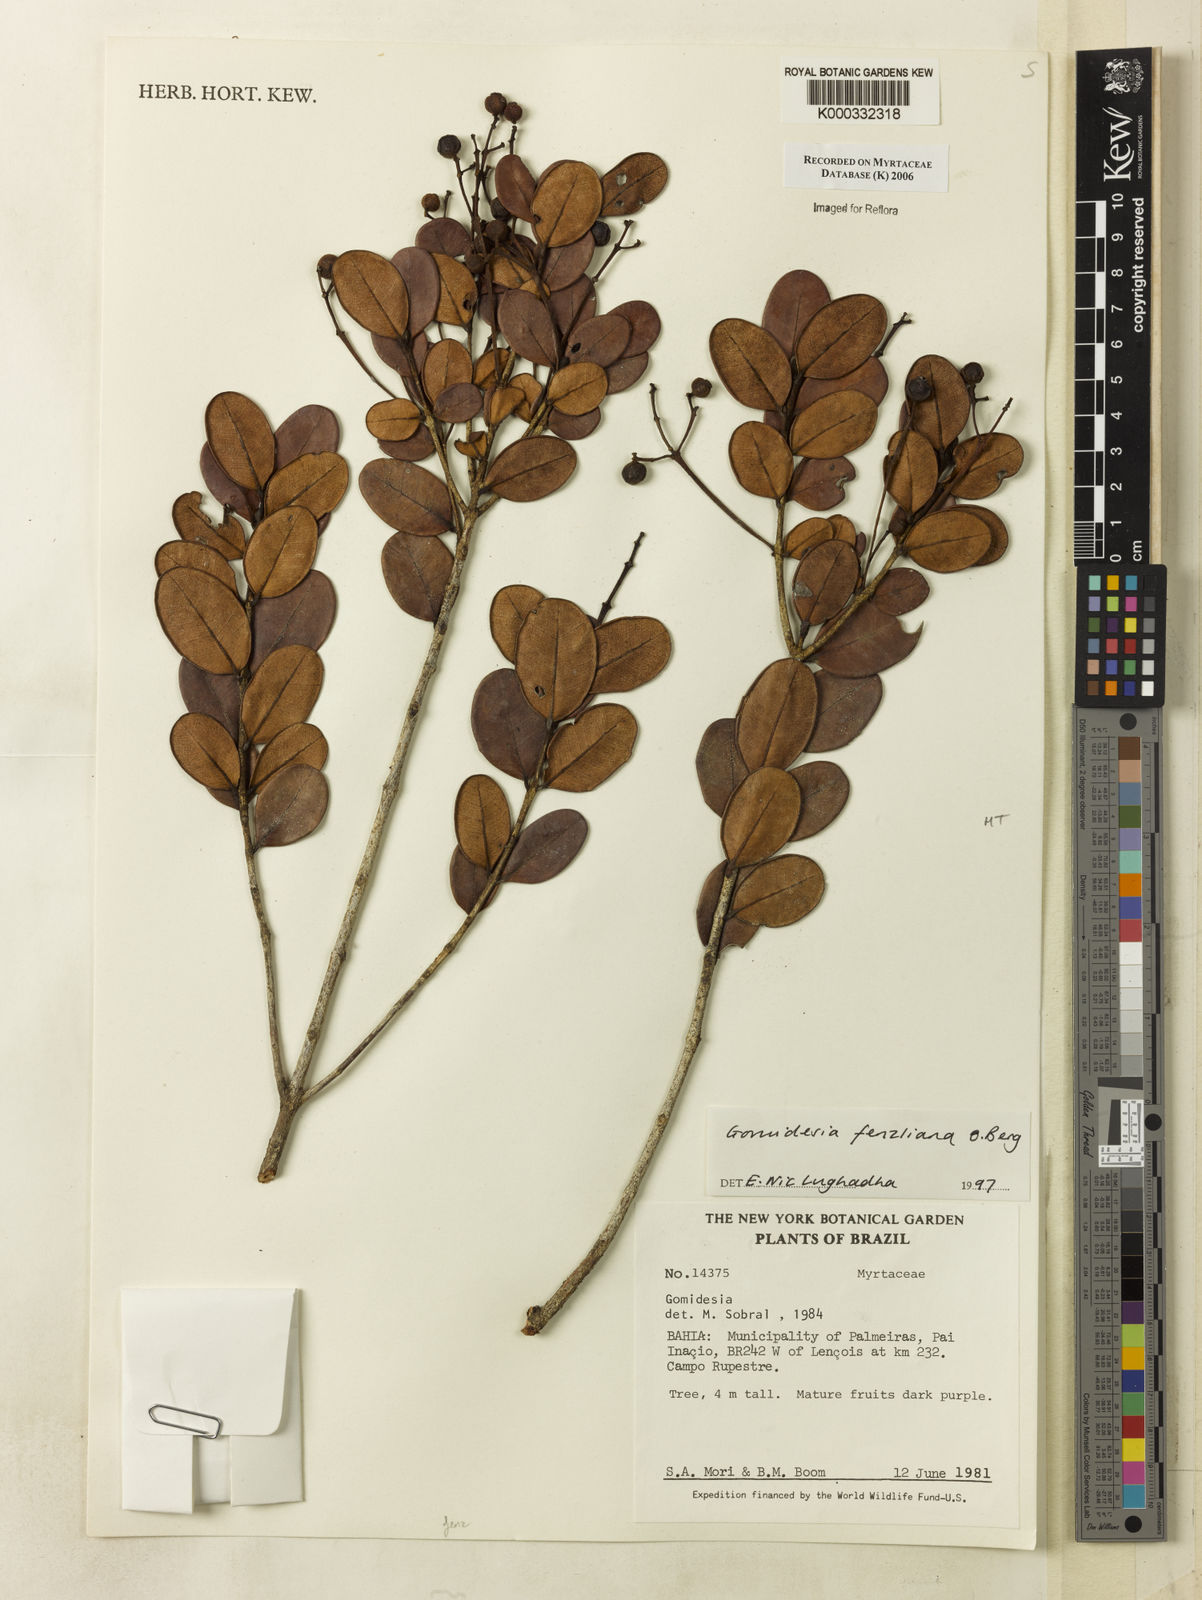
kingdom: Plantae
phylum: Tracheophyta
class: Magnoliopsida
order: Myrtales
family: Myrtaceae
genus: Myrcia
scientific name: Myrcia ilheosensis
